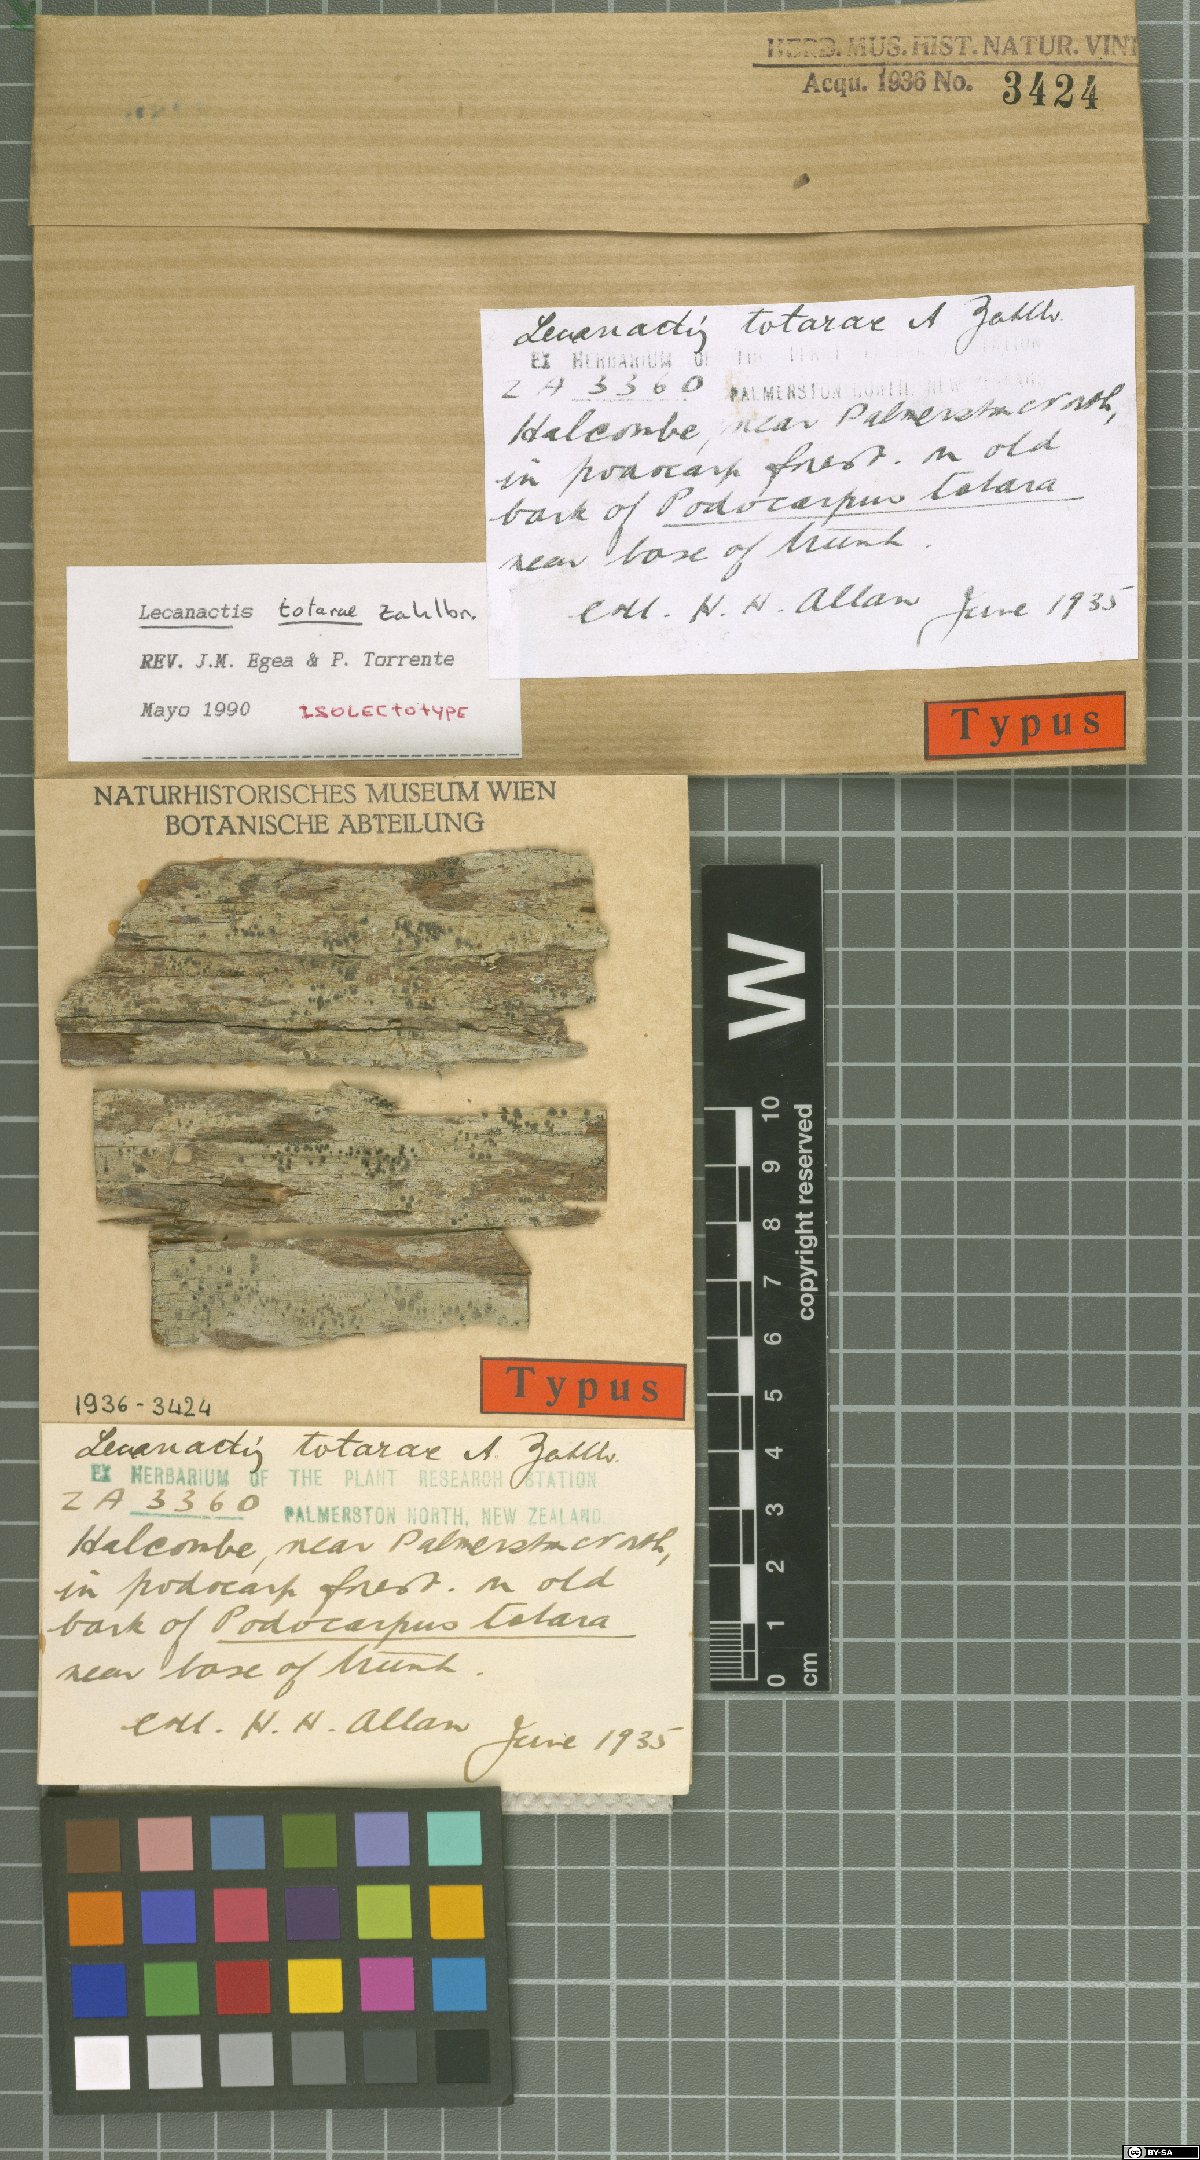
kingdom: Fungi
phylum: Ascomycota
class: Arthoniomycetes
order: Arthoniales
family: Roccellaceae
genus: Lecanactis
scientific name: Lecanactis totare
